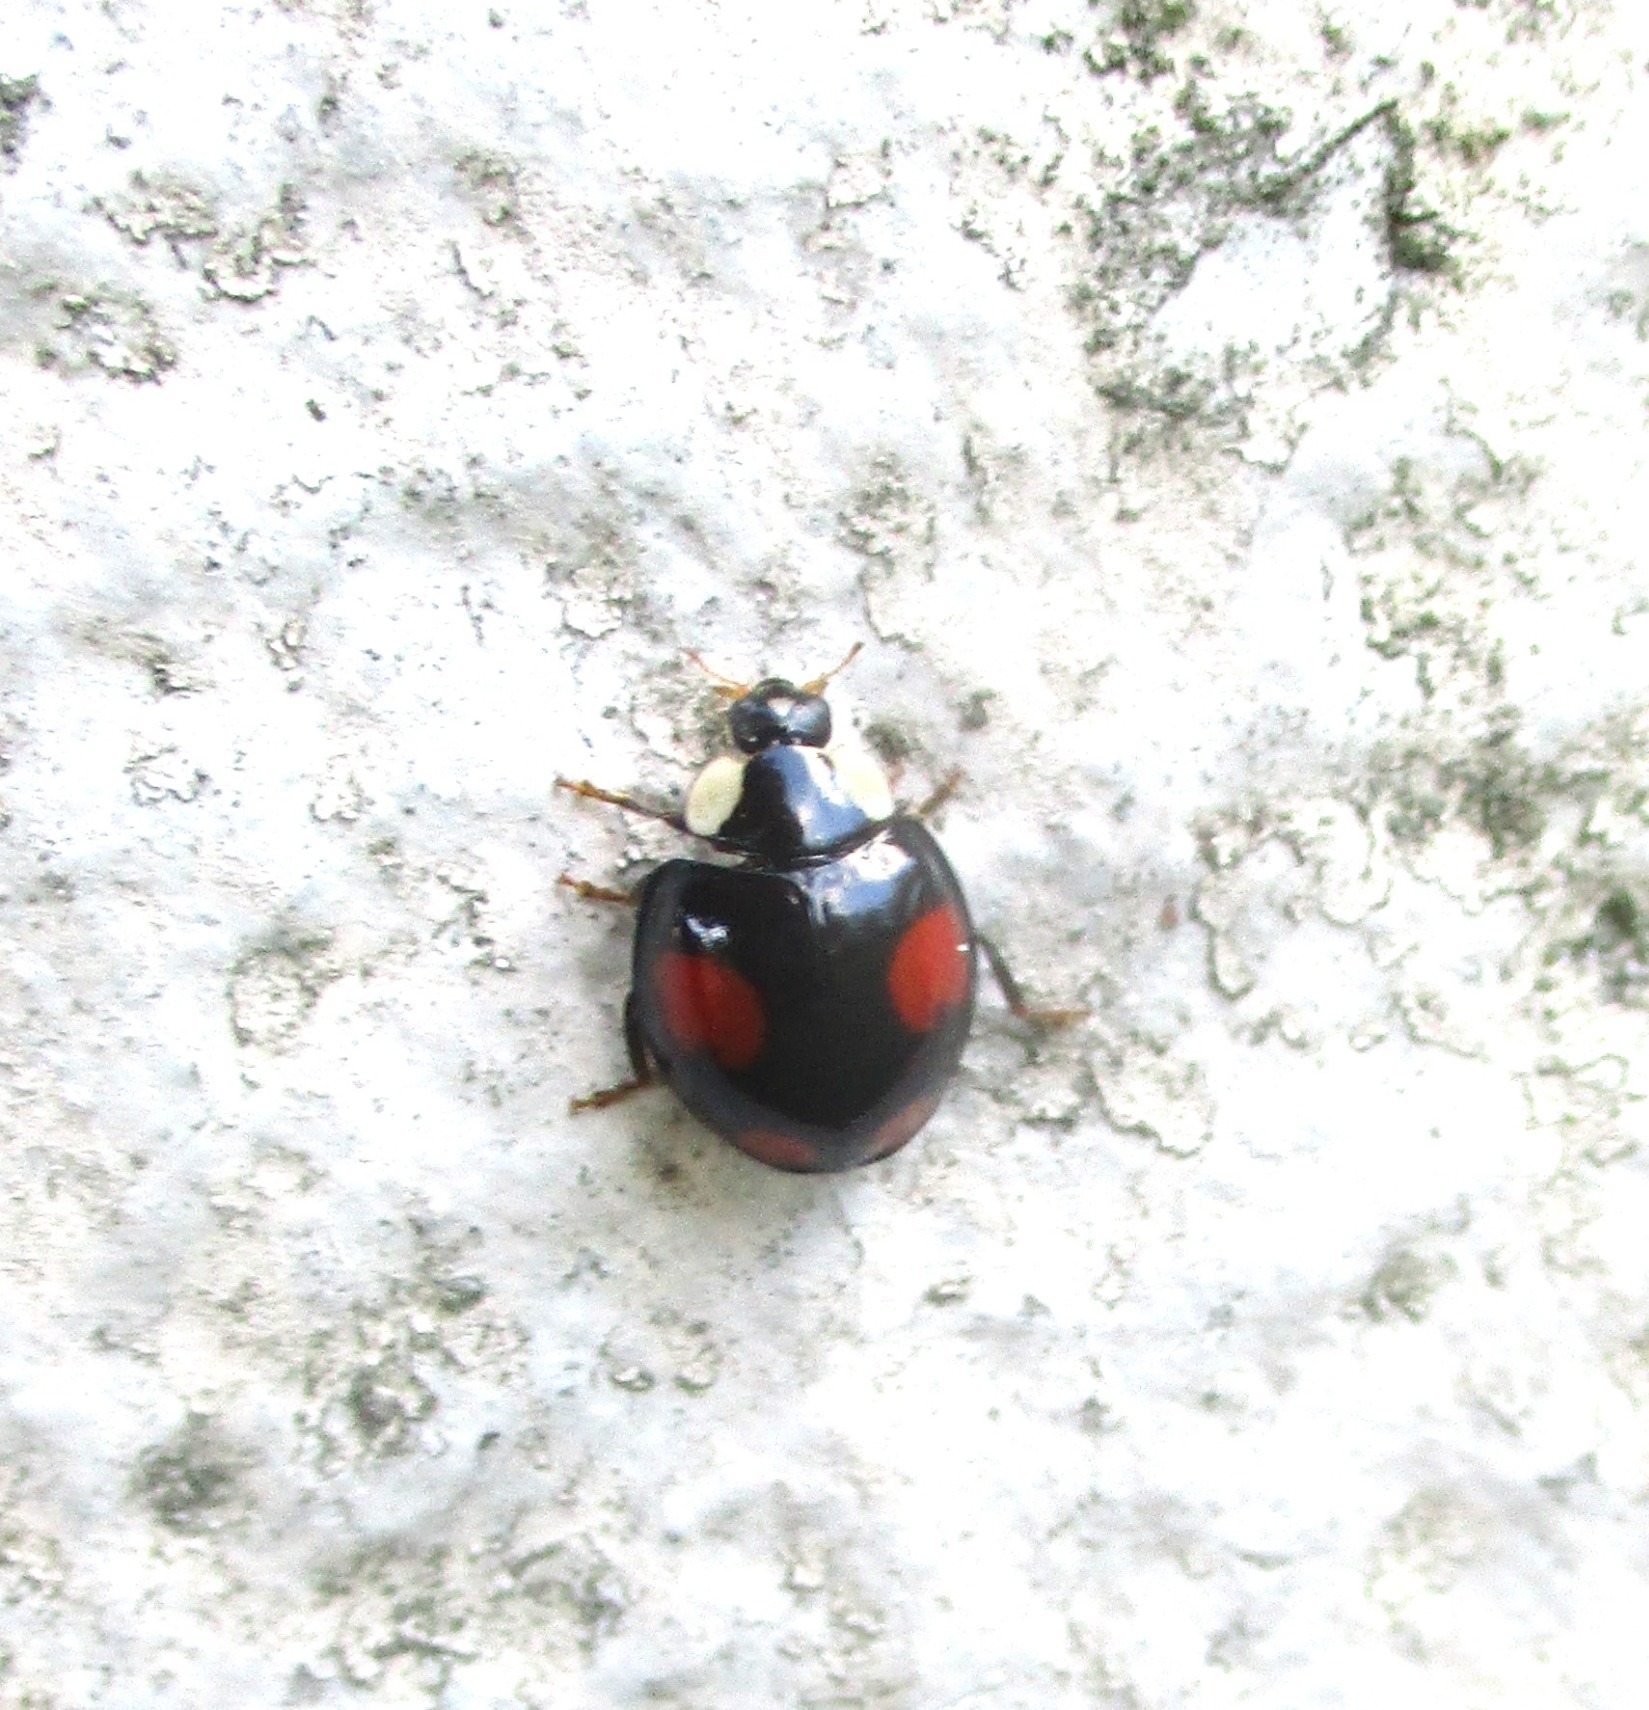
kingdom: Animalia
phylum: Arthropoda
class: Insecta
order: Coleoptera
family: Coccinellidae
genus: Harmonia
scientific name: Harmonia axyridis
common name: Harlekinmariehøne
